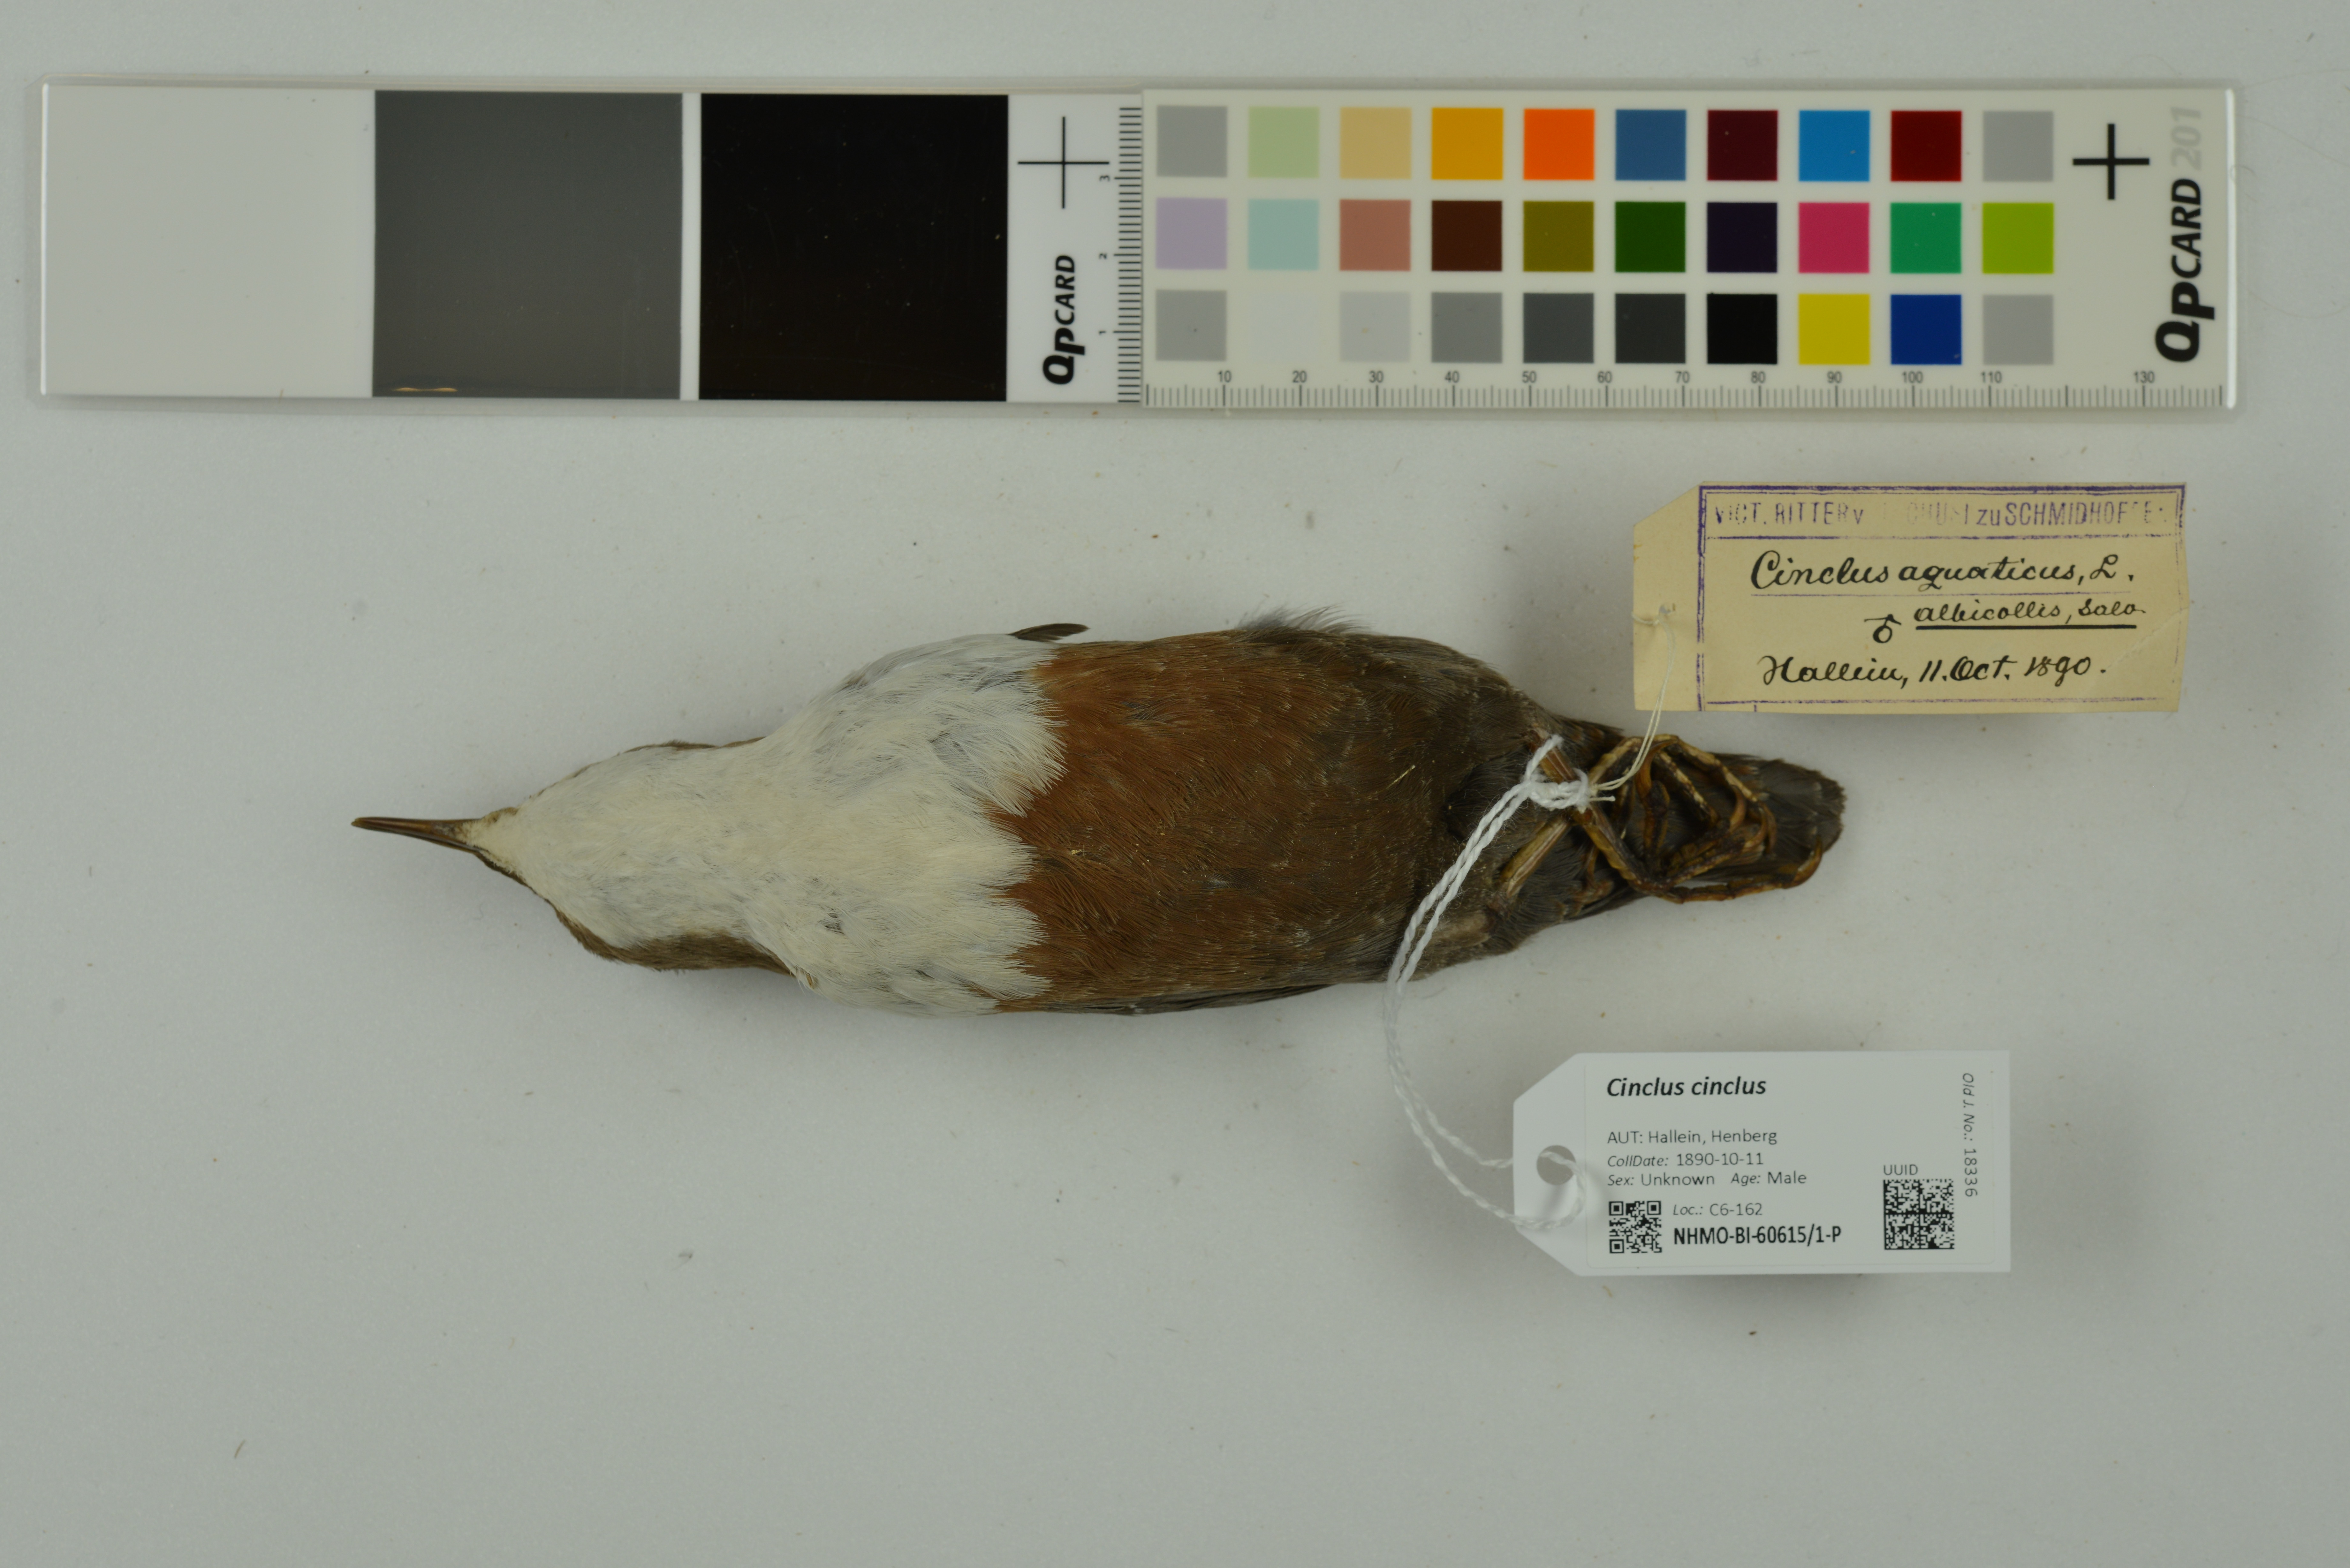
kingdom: Animalia
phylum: Chordata
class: Aves
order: Passeriformes
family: Cinclidae
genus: Cinclus
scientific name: Cinclus cinclus
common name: White-throated dipper
